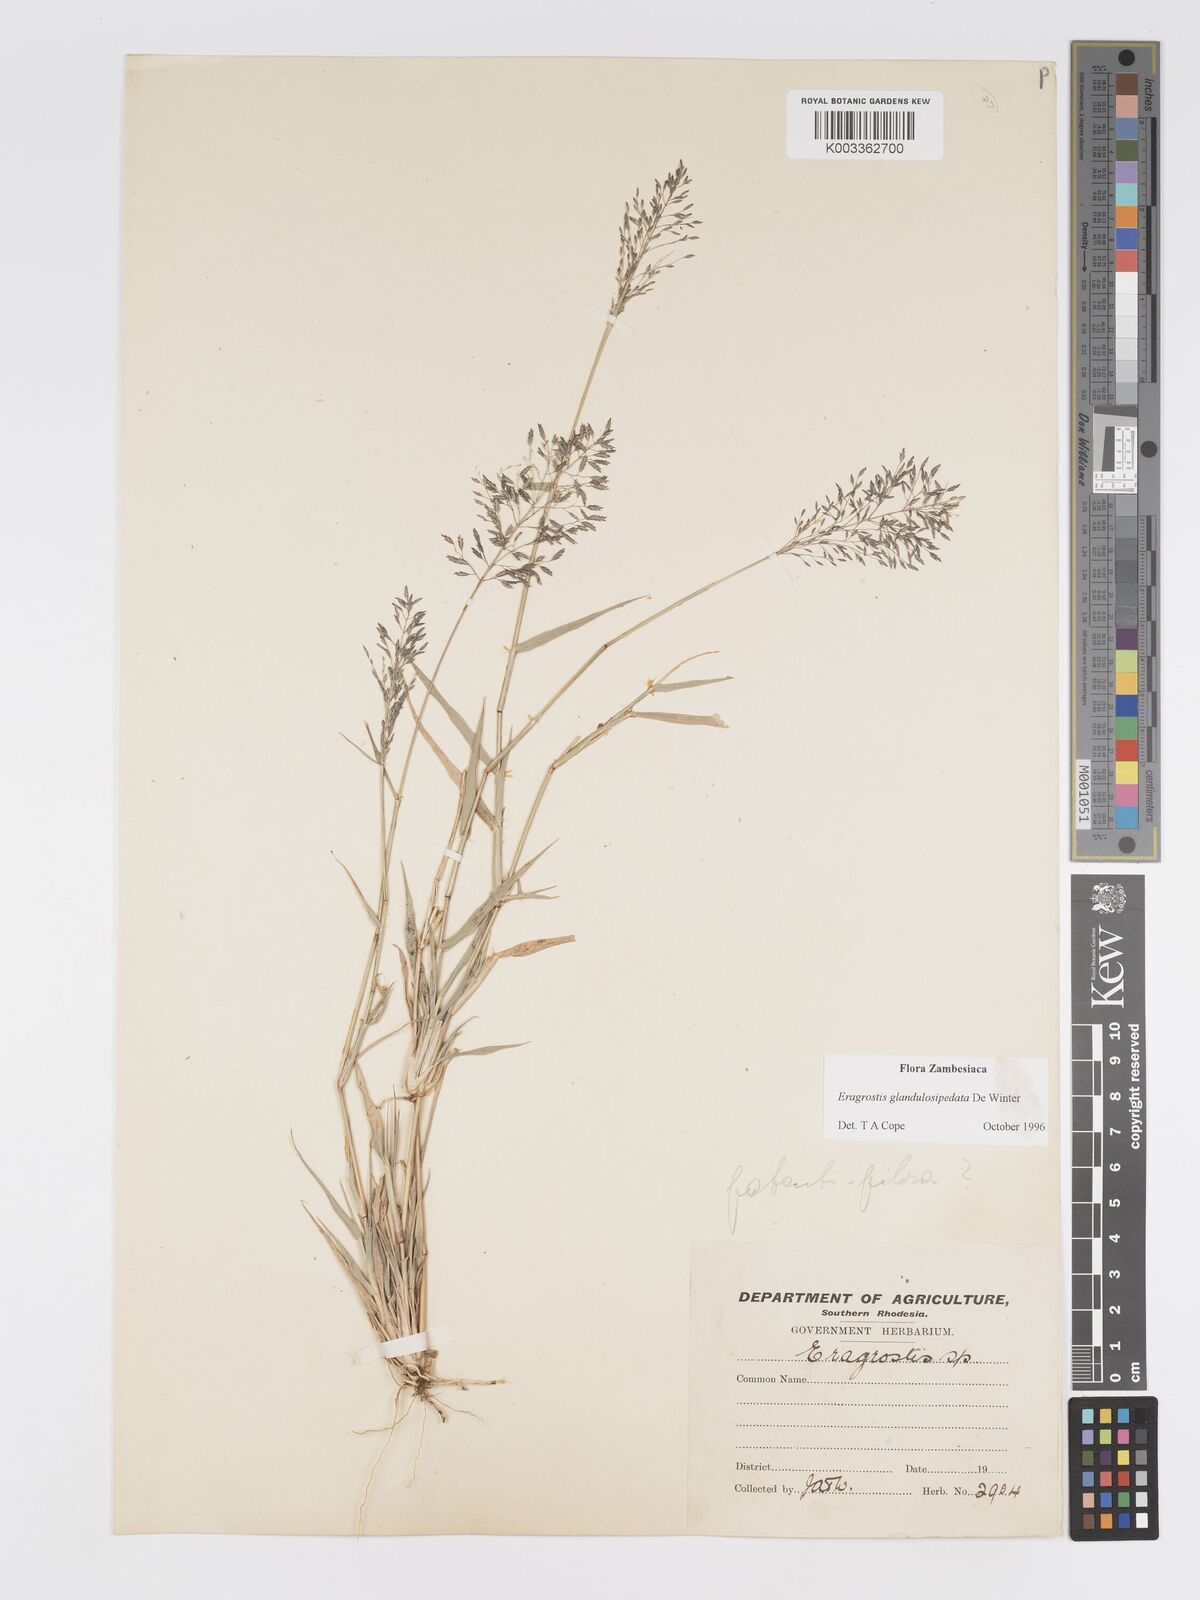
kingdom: Plantae
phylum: Tracheophyta
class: Liliopsida
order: Poales
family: Poaceae
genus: Eragrostis
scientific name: Eragrostis glandulosipedata
